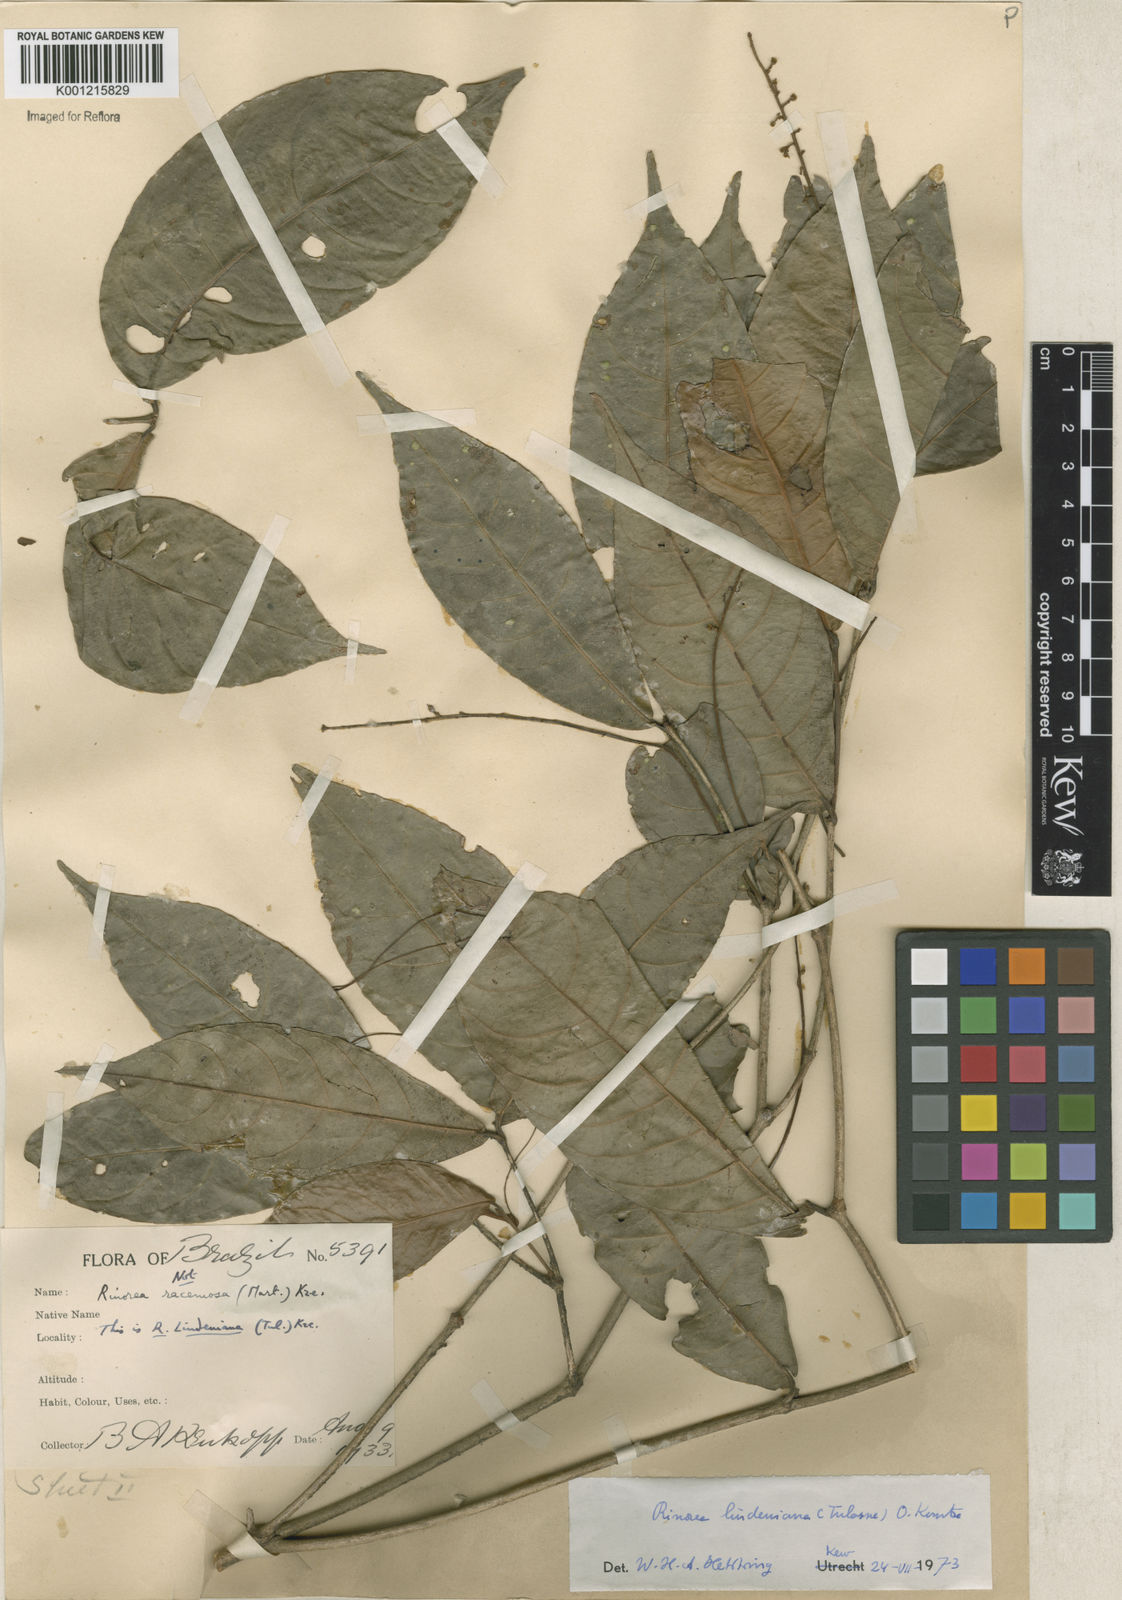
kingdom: Plantae
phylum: Tracheophyta
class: Magnoliopsida
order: Malpighiales
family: Violaceae
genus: Rinorea
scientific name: Rinorea lindeniana
